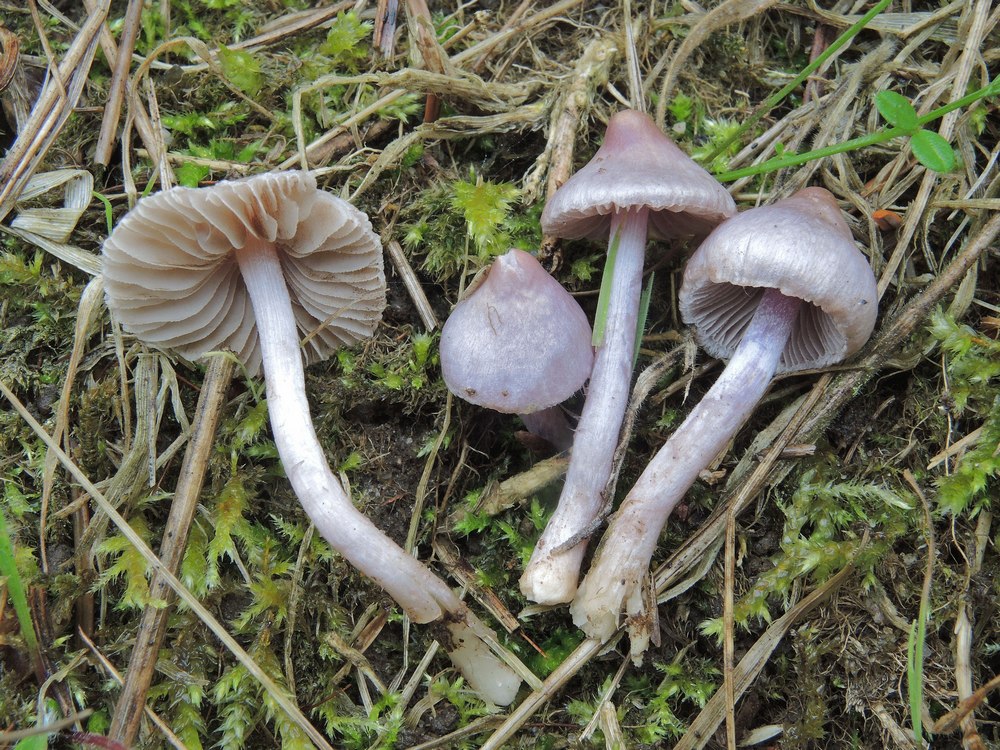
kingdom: Fungi
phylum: Basidiomycota
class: Agaricomycetes
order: Agaricales
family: Inocybaceae
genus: Inocybe
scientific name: Inocybe geophylla
